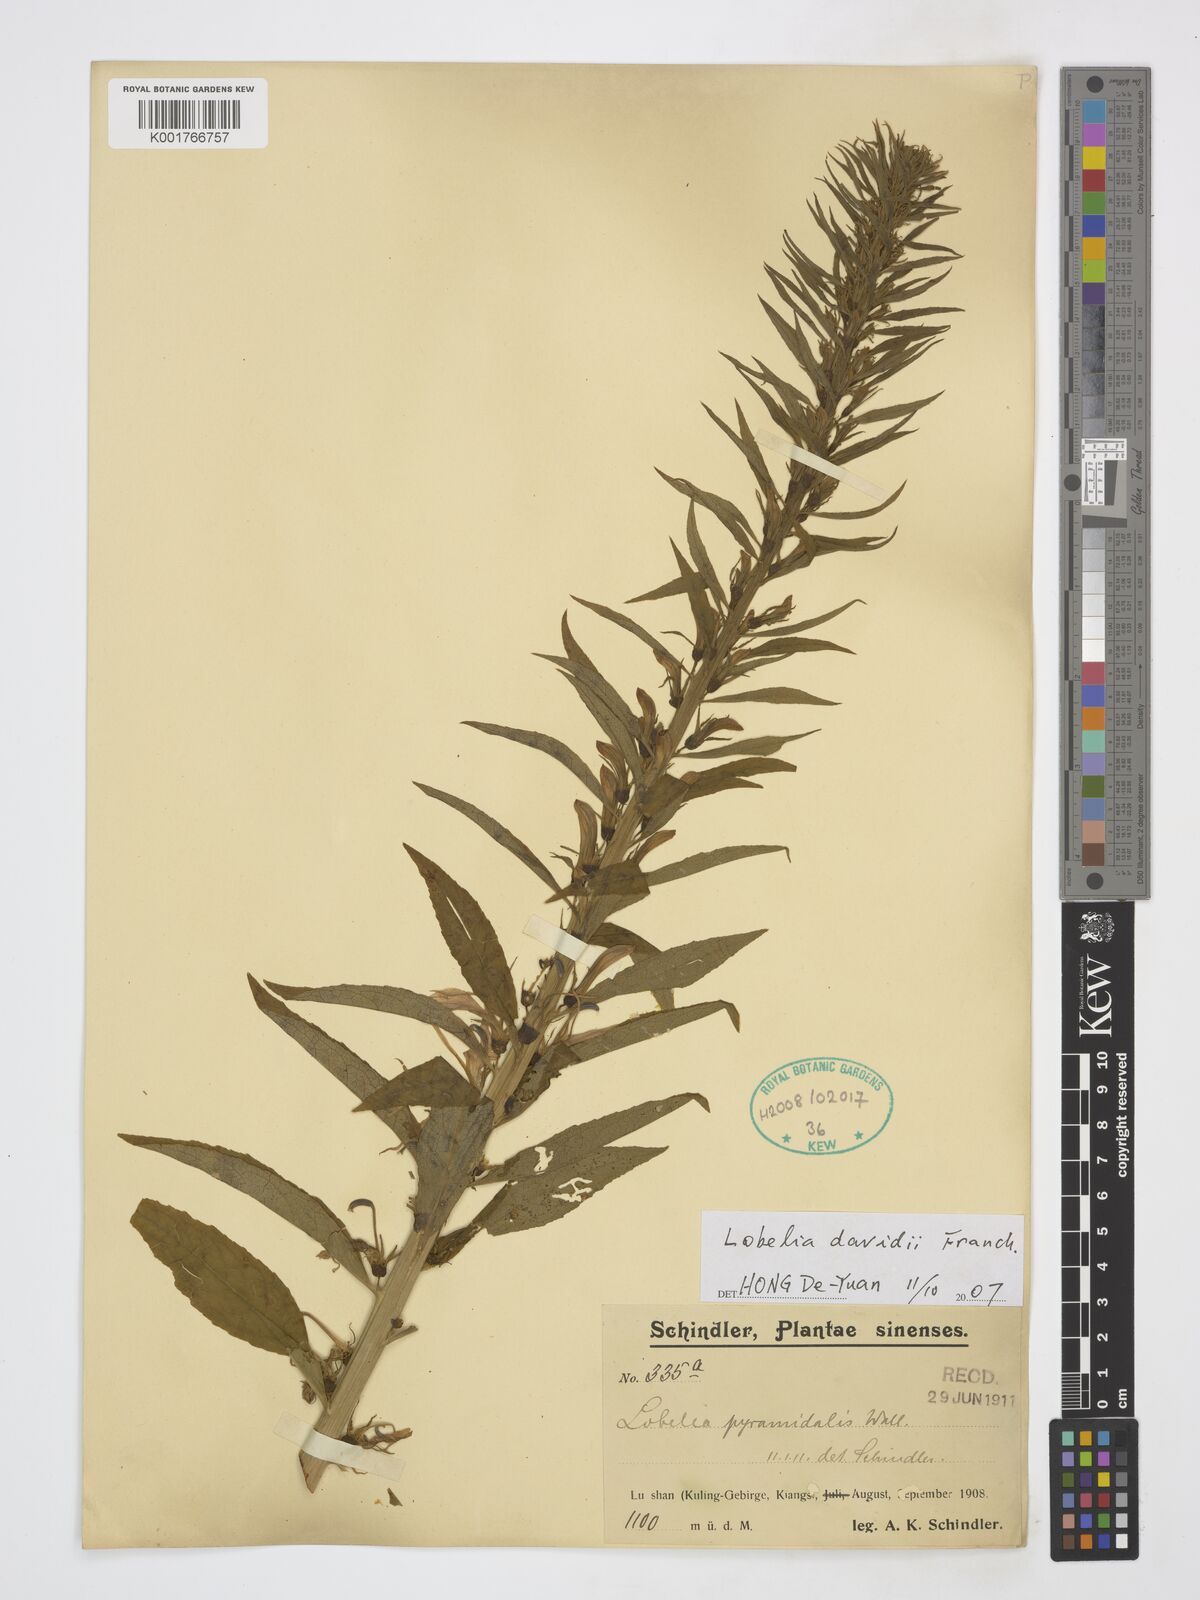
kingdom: Plantae
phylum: Tracheophyta
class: Magnoliopsida
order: Asterales
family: Campanulaceae
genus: Lobelia
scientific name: Lobelia davidii
